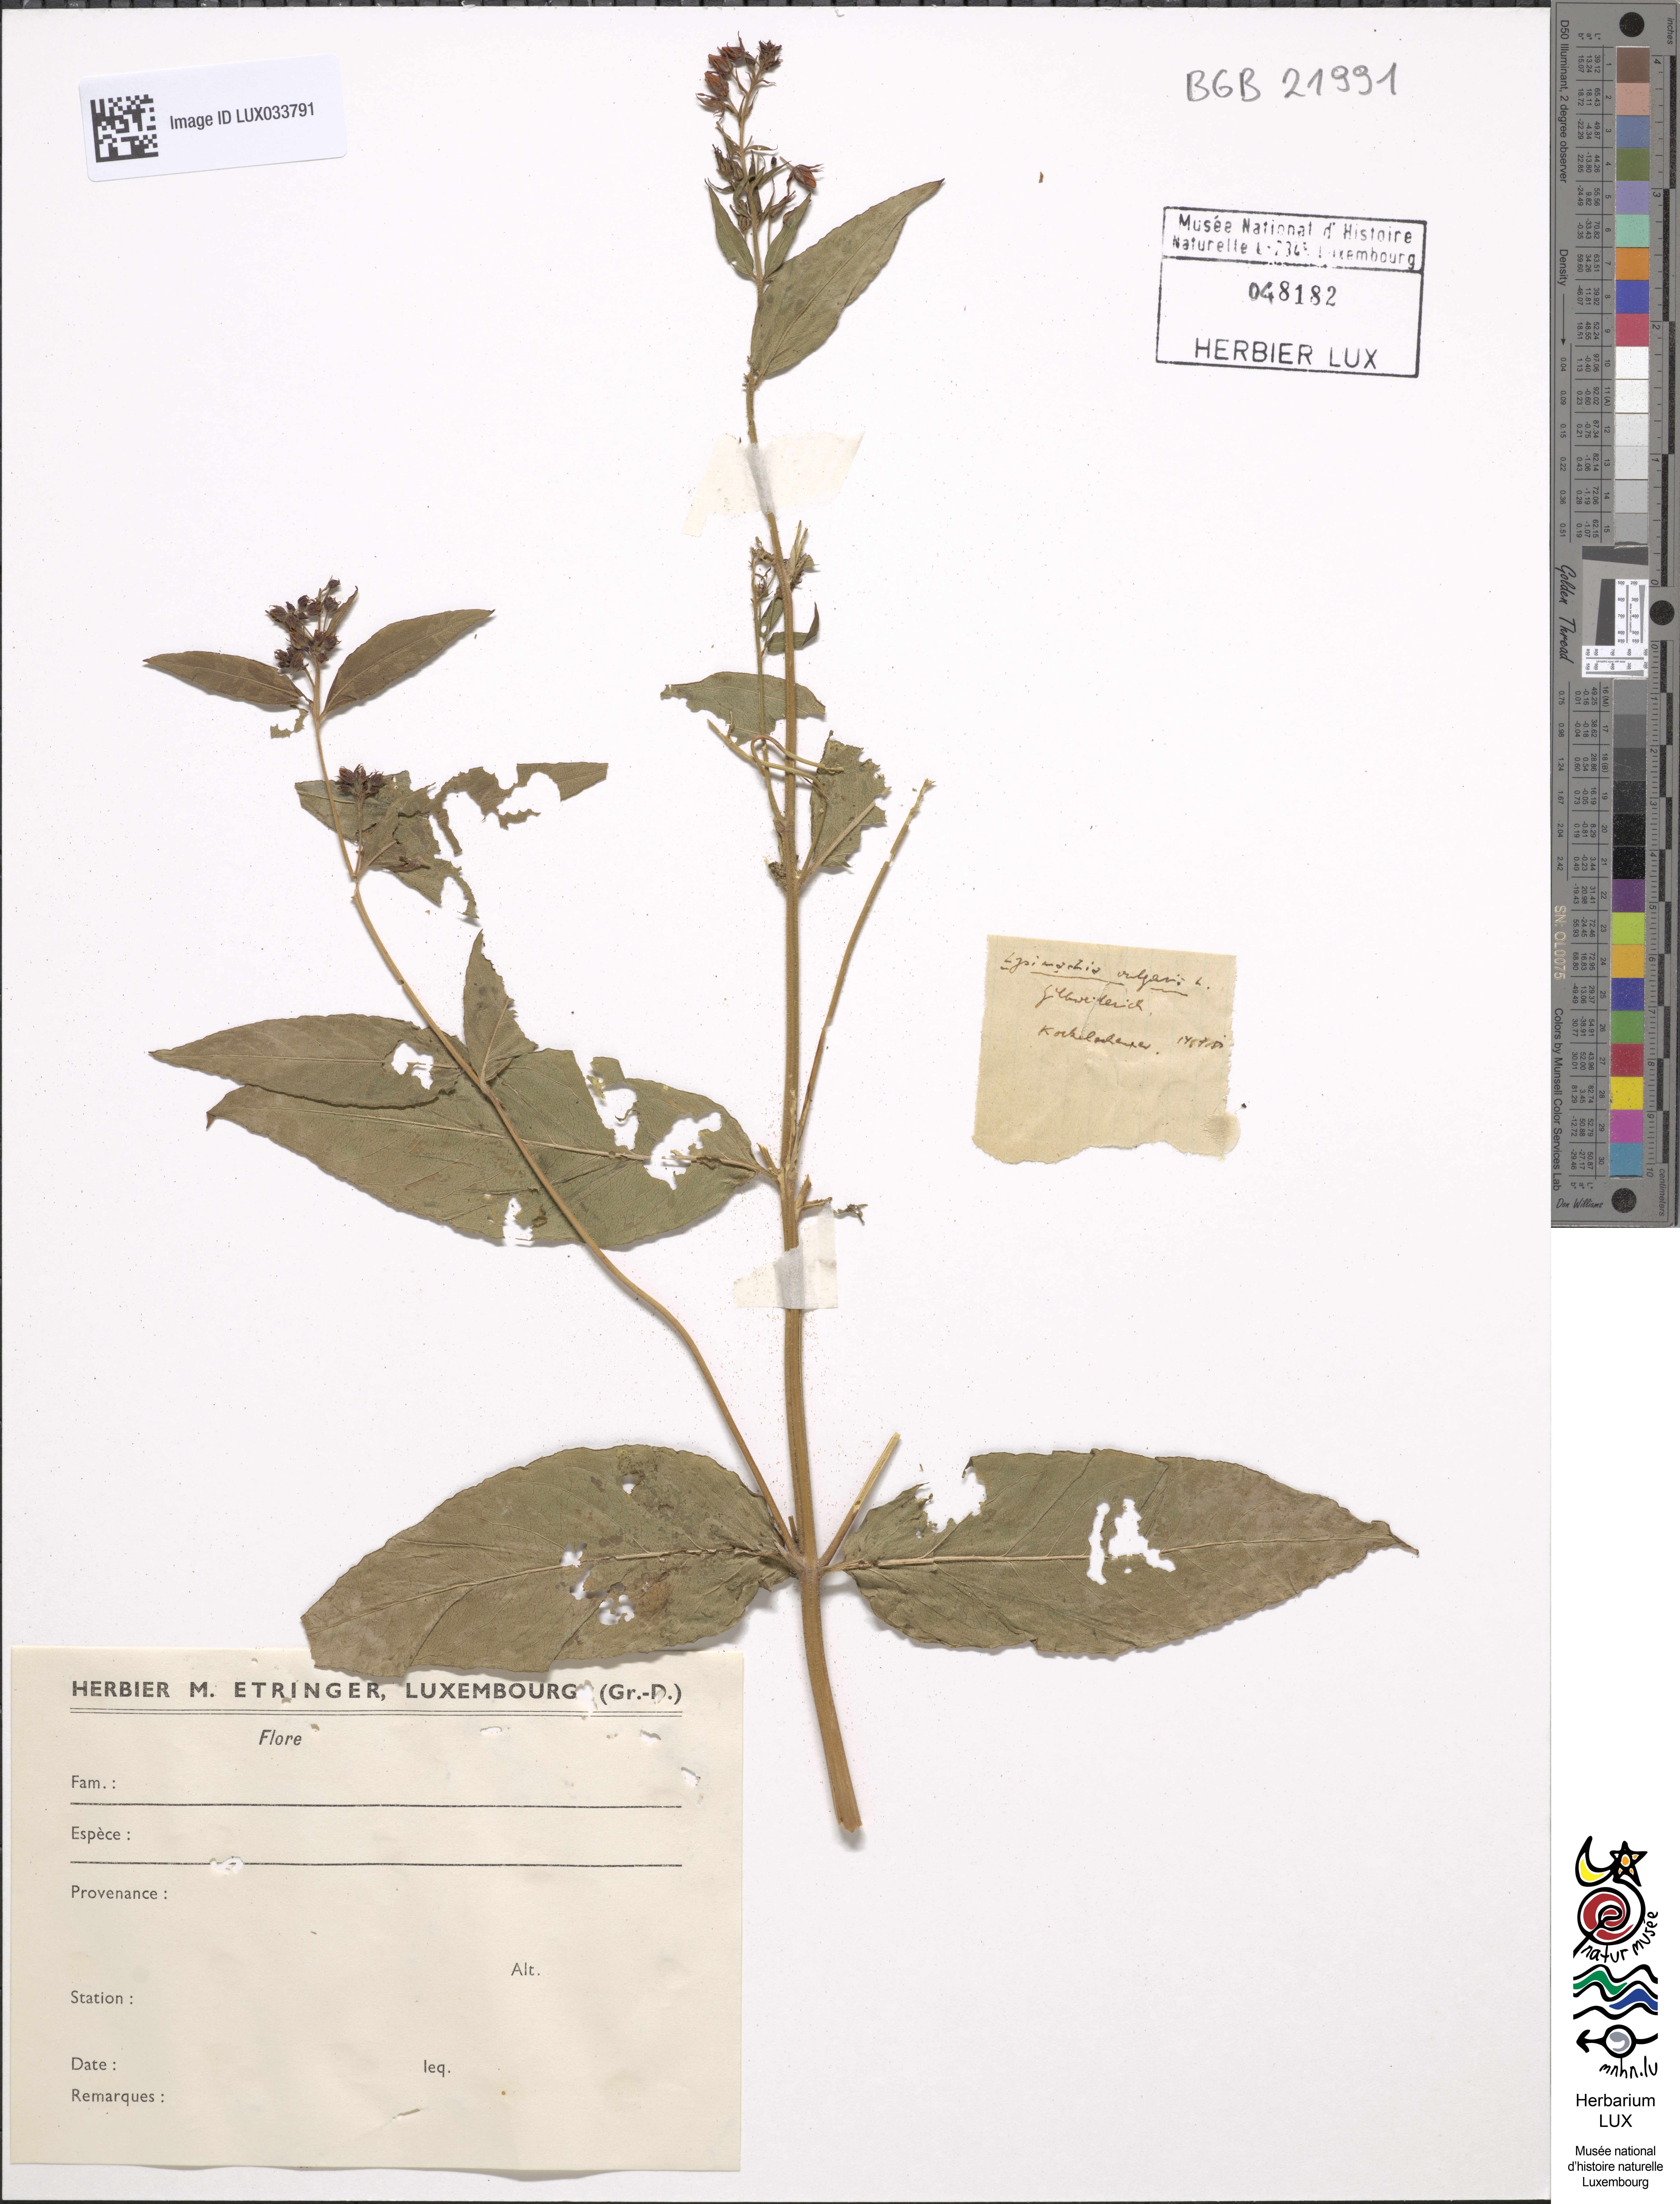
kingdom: Plantae
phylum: Tracheophyta
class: Magnoliopsida
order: Ericales
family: Primulaceae
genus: Lysimachia
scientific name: Lysimachia vulgaris
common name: Yellow loosestrife
